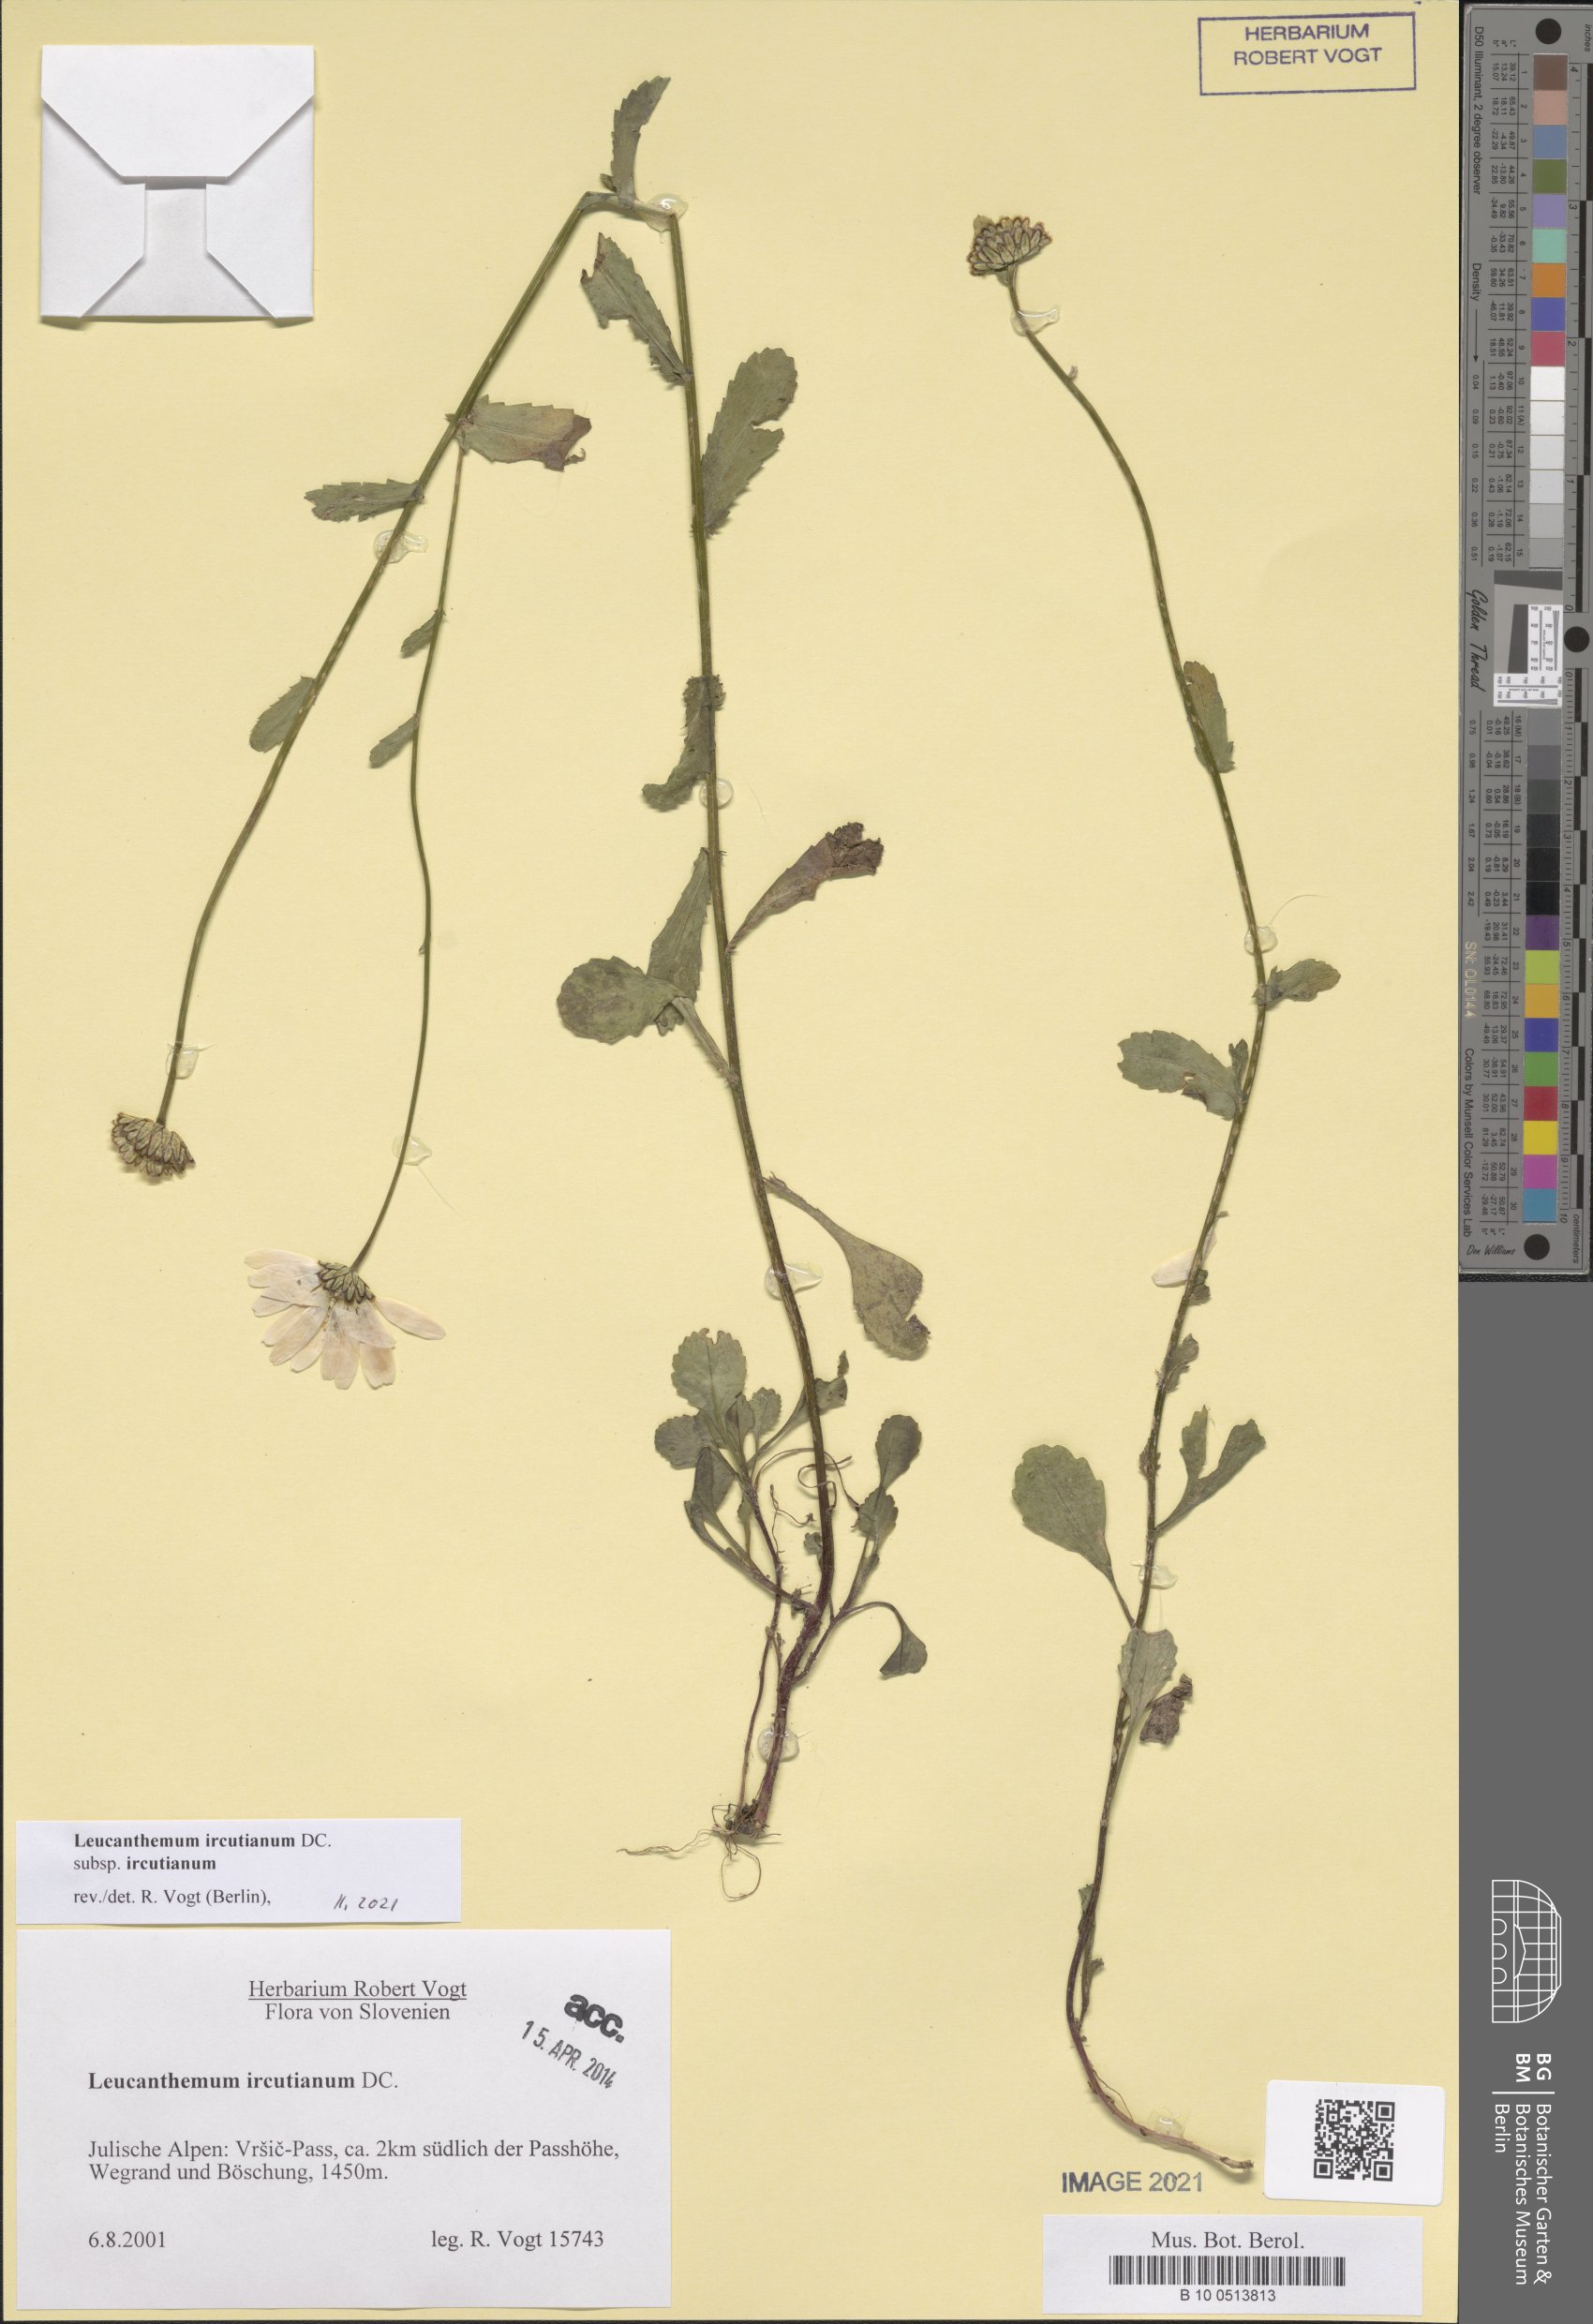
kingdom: Plantae
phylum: Tracheophyta
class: Magnoliopsida
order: Asterales
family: Asteraceae
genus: Leucanthemum
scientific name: Leucanthemum ircutianum
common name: Daisy
